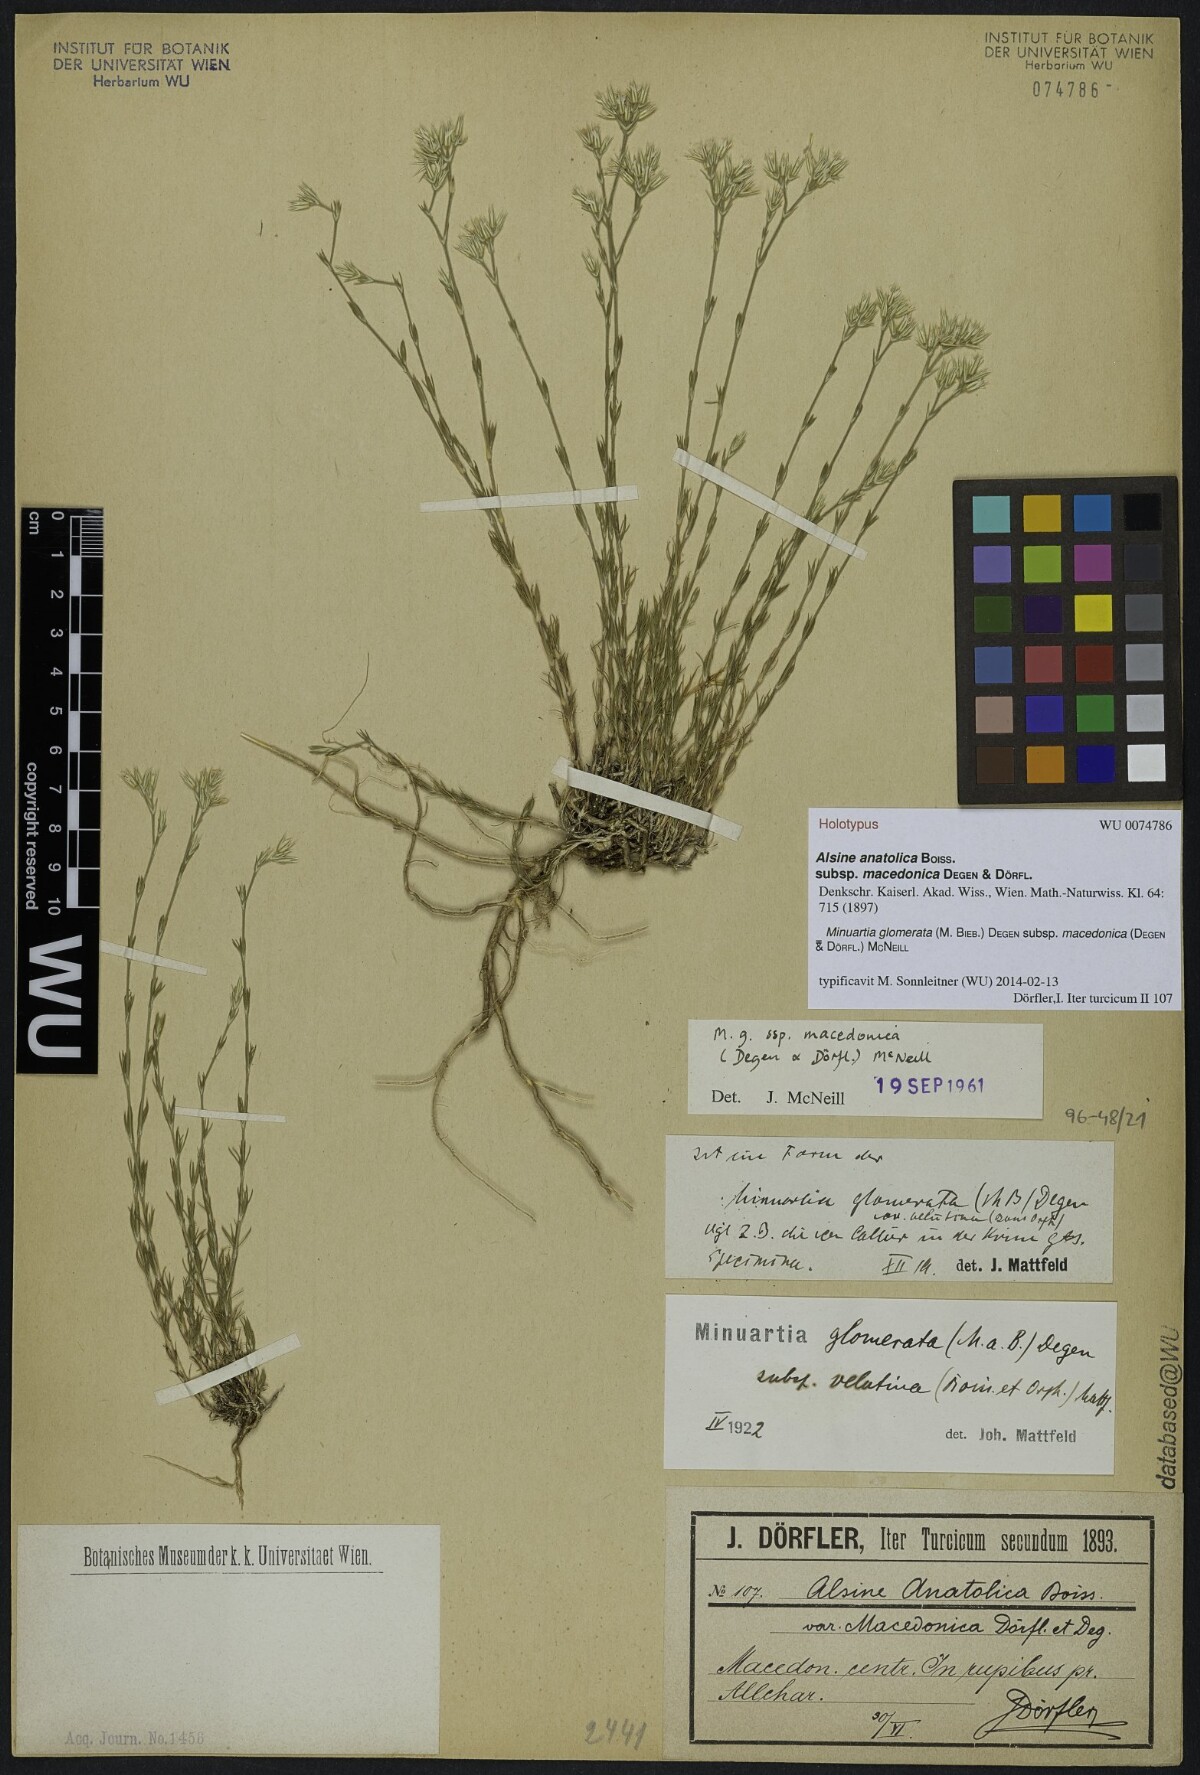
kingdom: Plantae
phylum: Tracheophyta
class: Magnoliopsida
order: Caryophyllales
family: Caryophyllaceae
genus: Minuartia
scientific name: Minuartia glomerata
